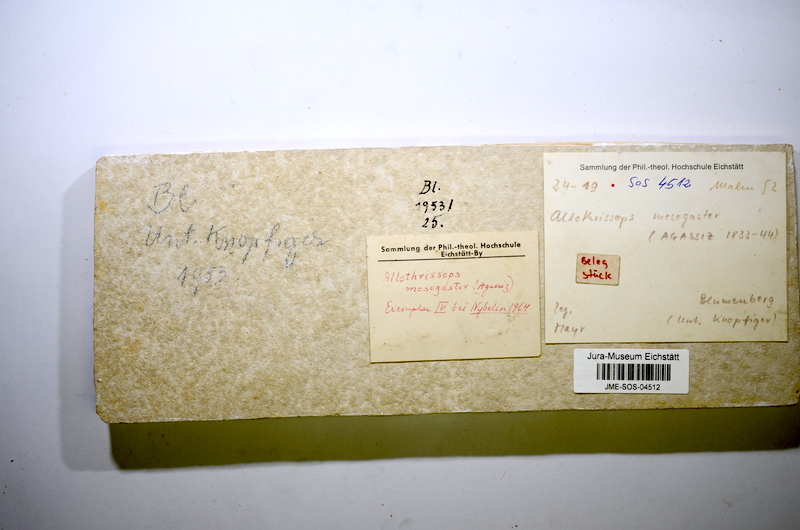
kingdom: Animalia
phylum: Chordata
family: Allothrissopidae
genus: Allothrissops
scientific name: Allothrissops mesogaster
